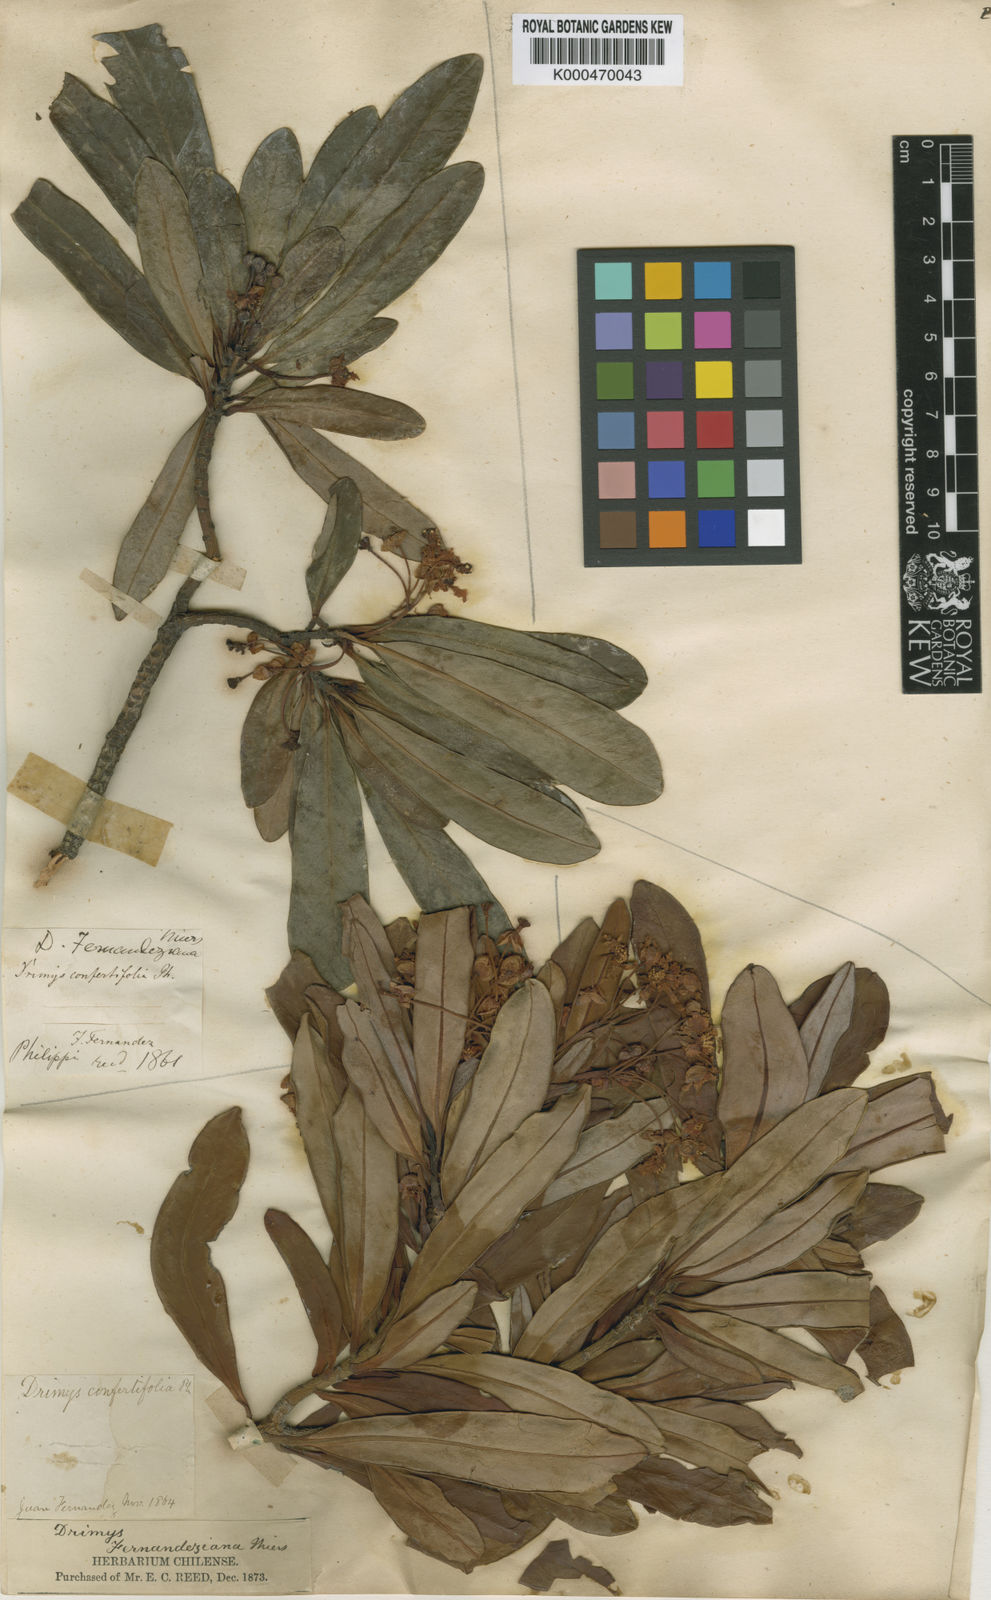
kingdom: Plantae
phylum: Tracheophyta
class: Magnoliopsida
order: Canellales
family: Winteraceae
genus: Drimys
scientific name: Drimys confertiflora
